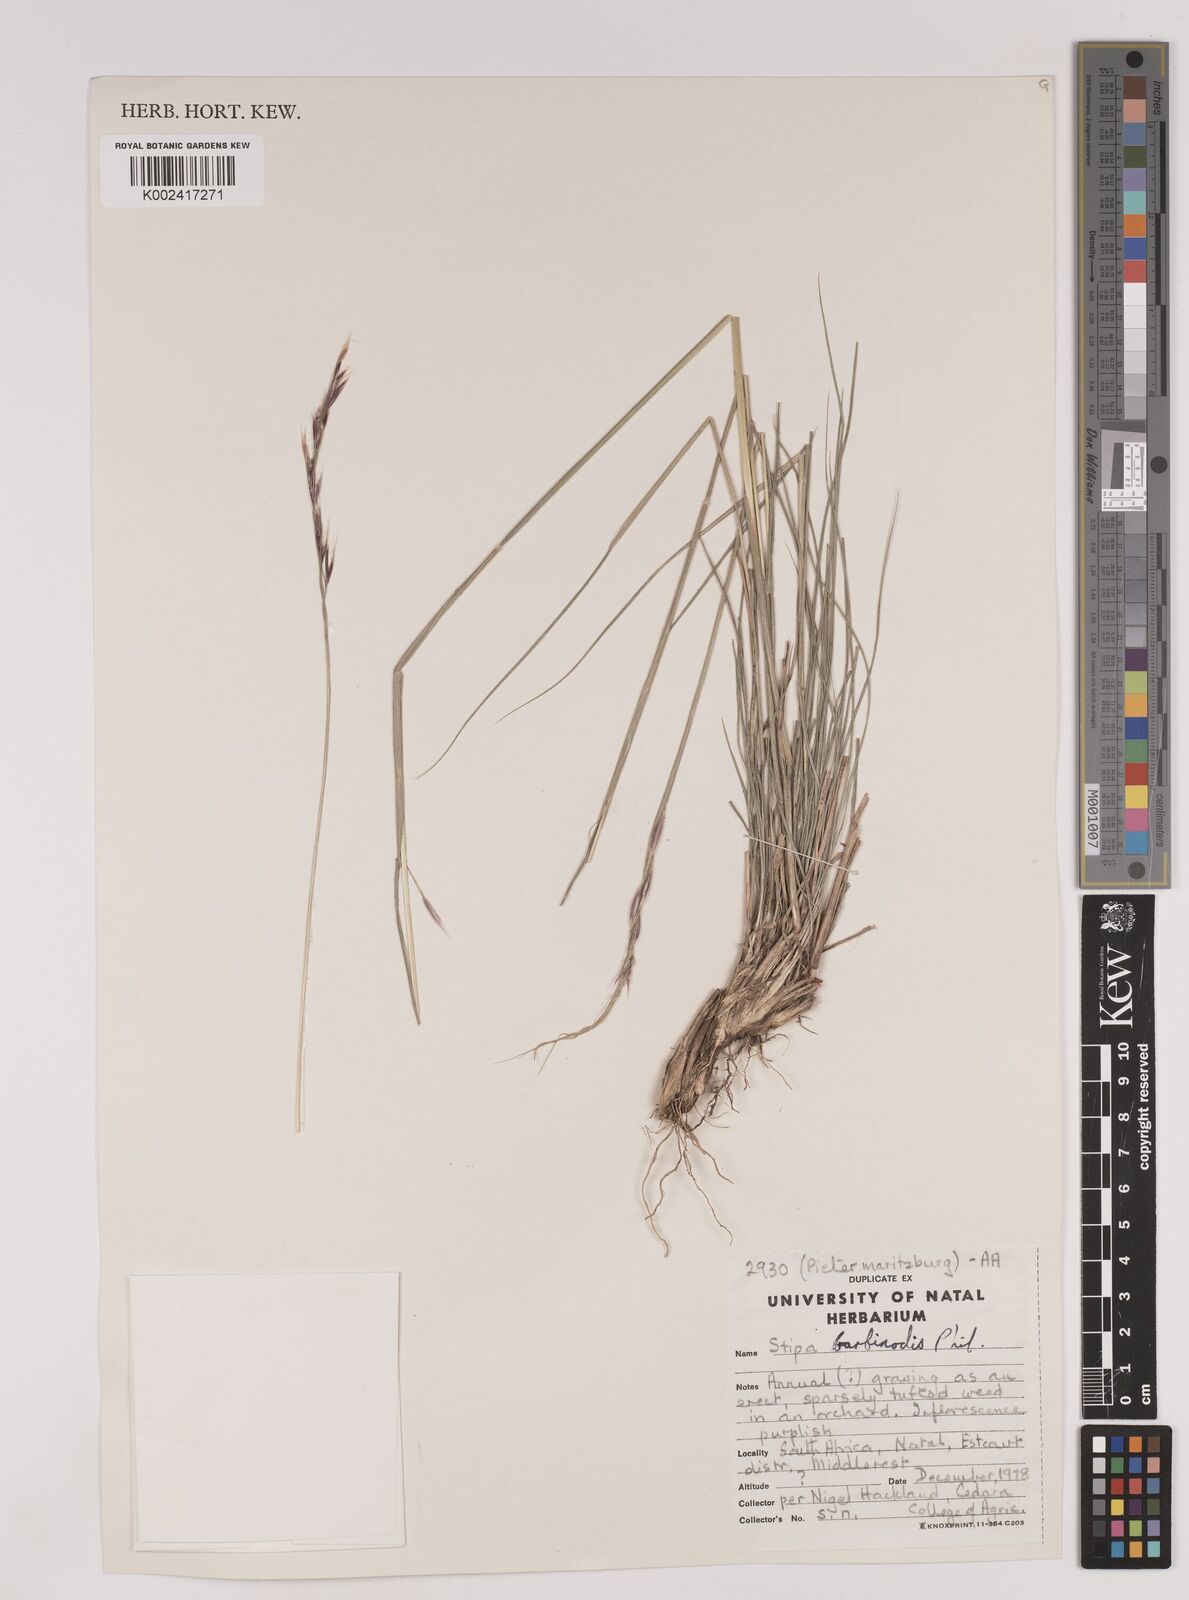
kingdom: Plantae
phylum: Tracheophyta
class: Liliopsida
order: Poales
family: Poaceae
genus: Nassella
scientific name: Nassella duriuscula
